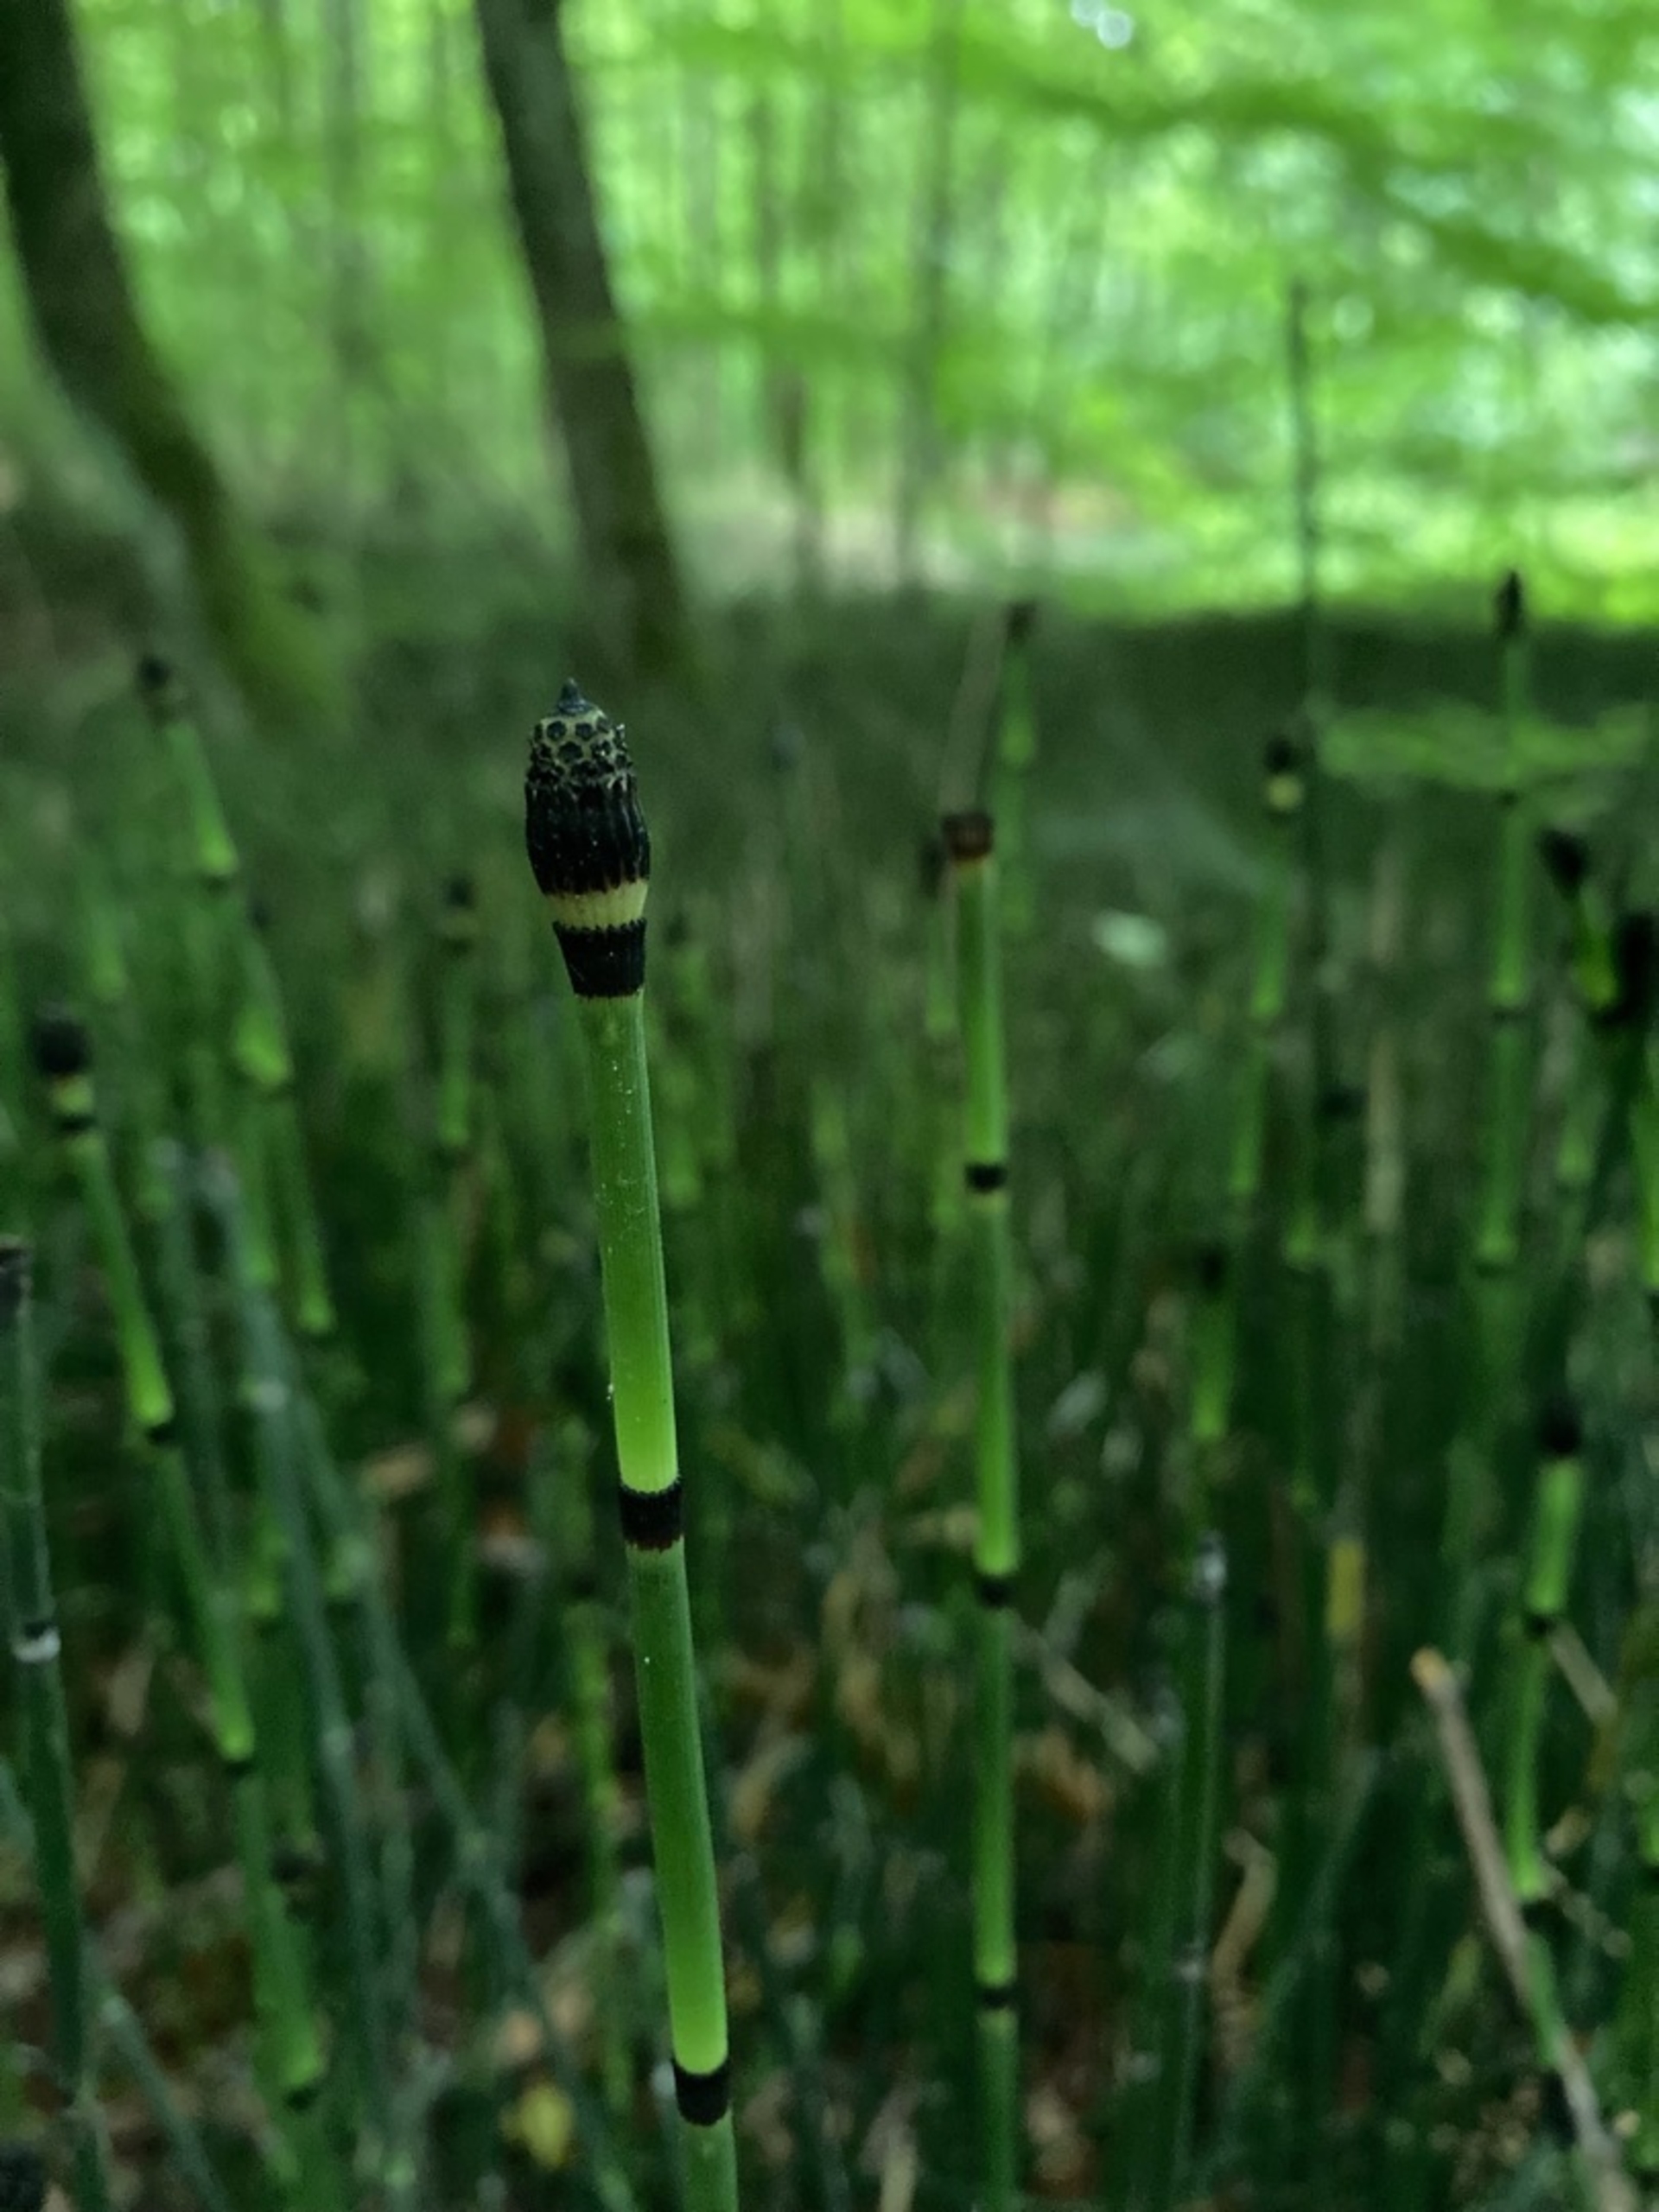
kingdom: Plantae
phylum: Tracheophyta
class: Polypodiopsida
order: Equisetales
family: Equisetaceae
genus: Equisetum
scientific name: Equisetum hyemale
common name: Skavgræs
